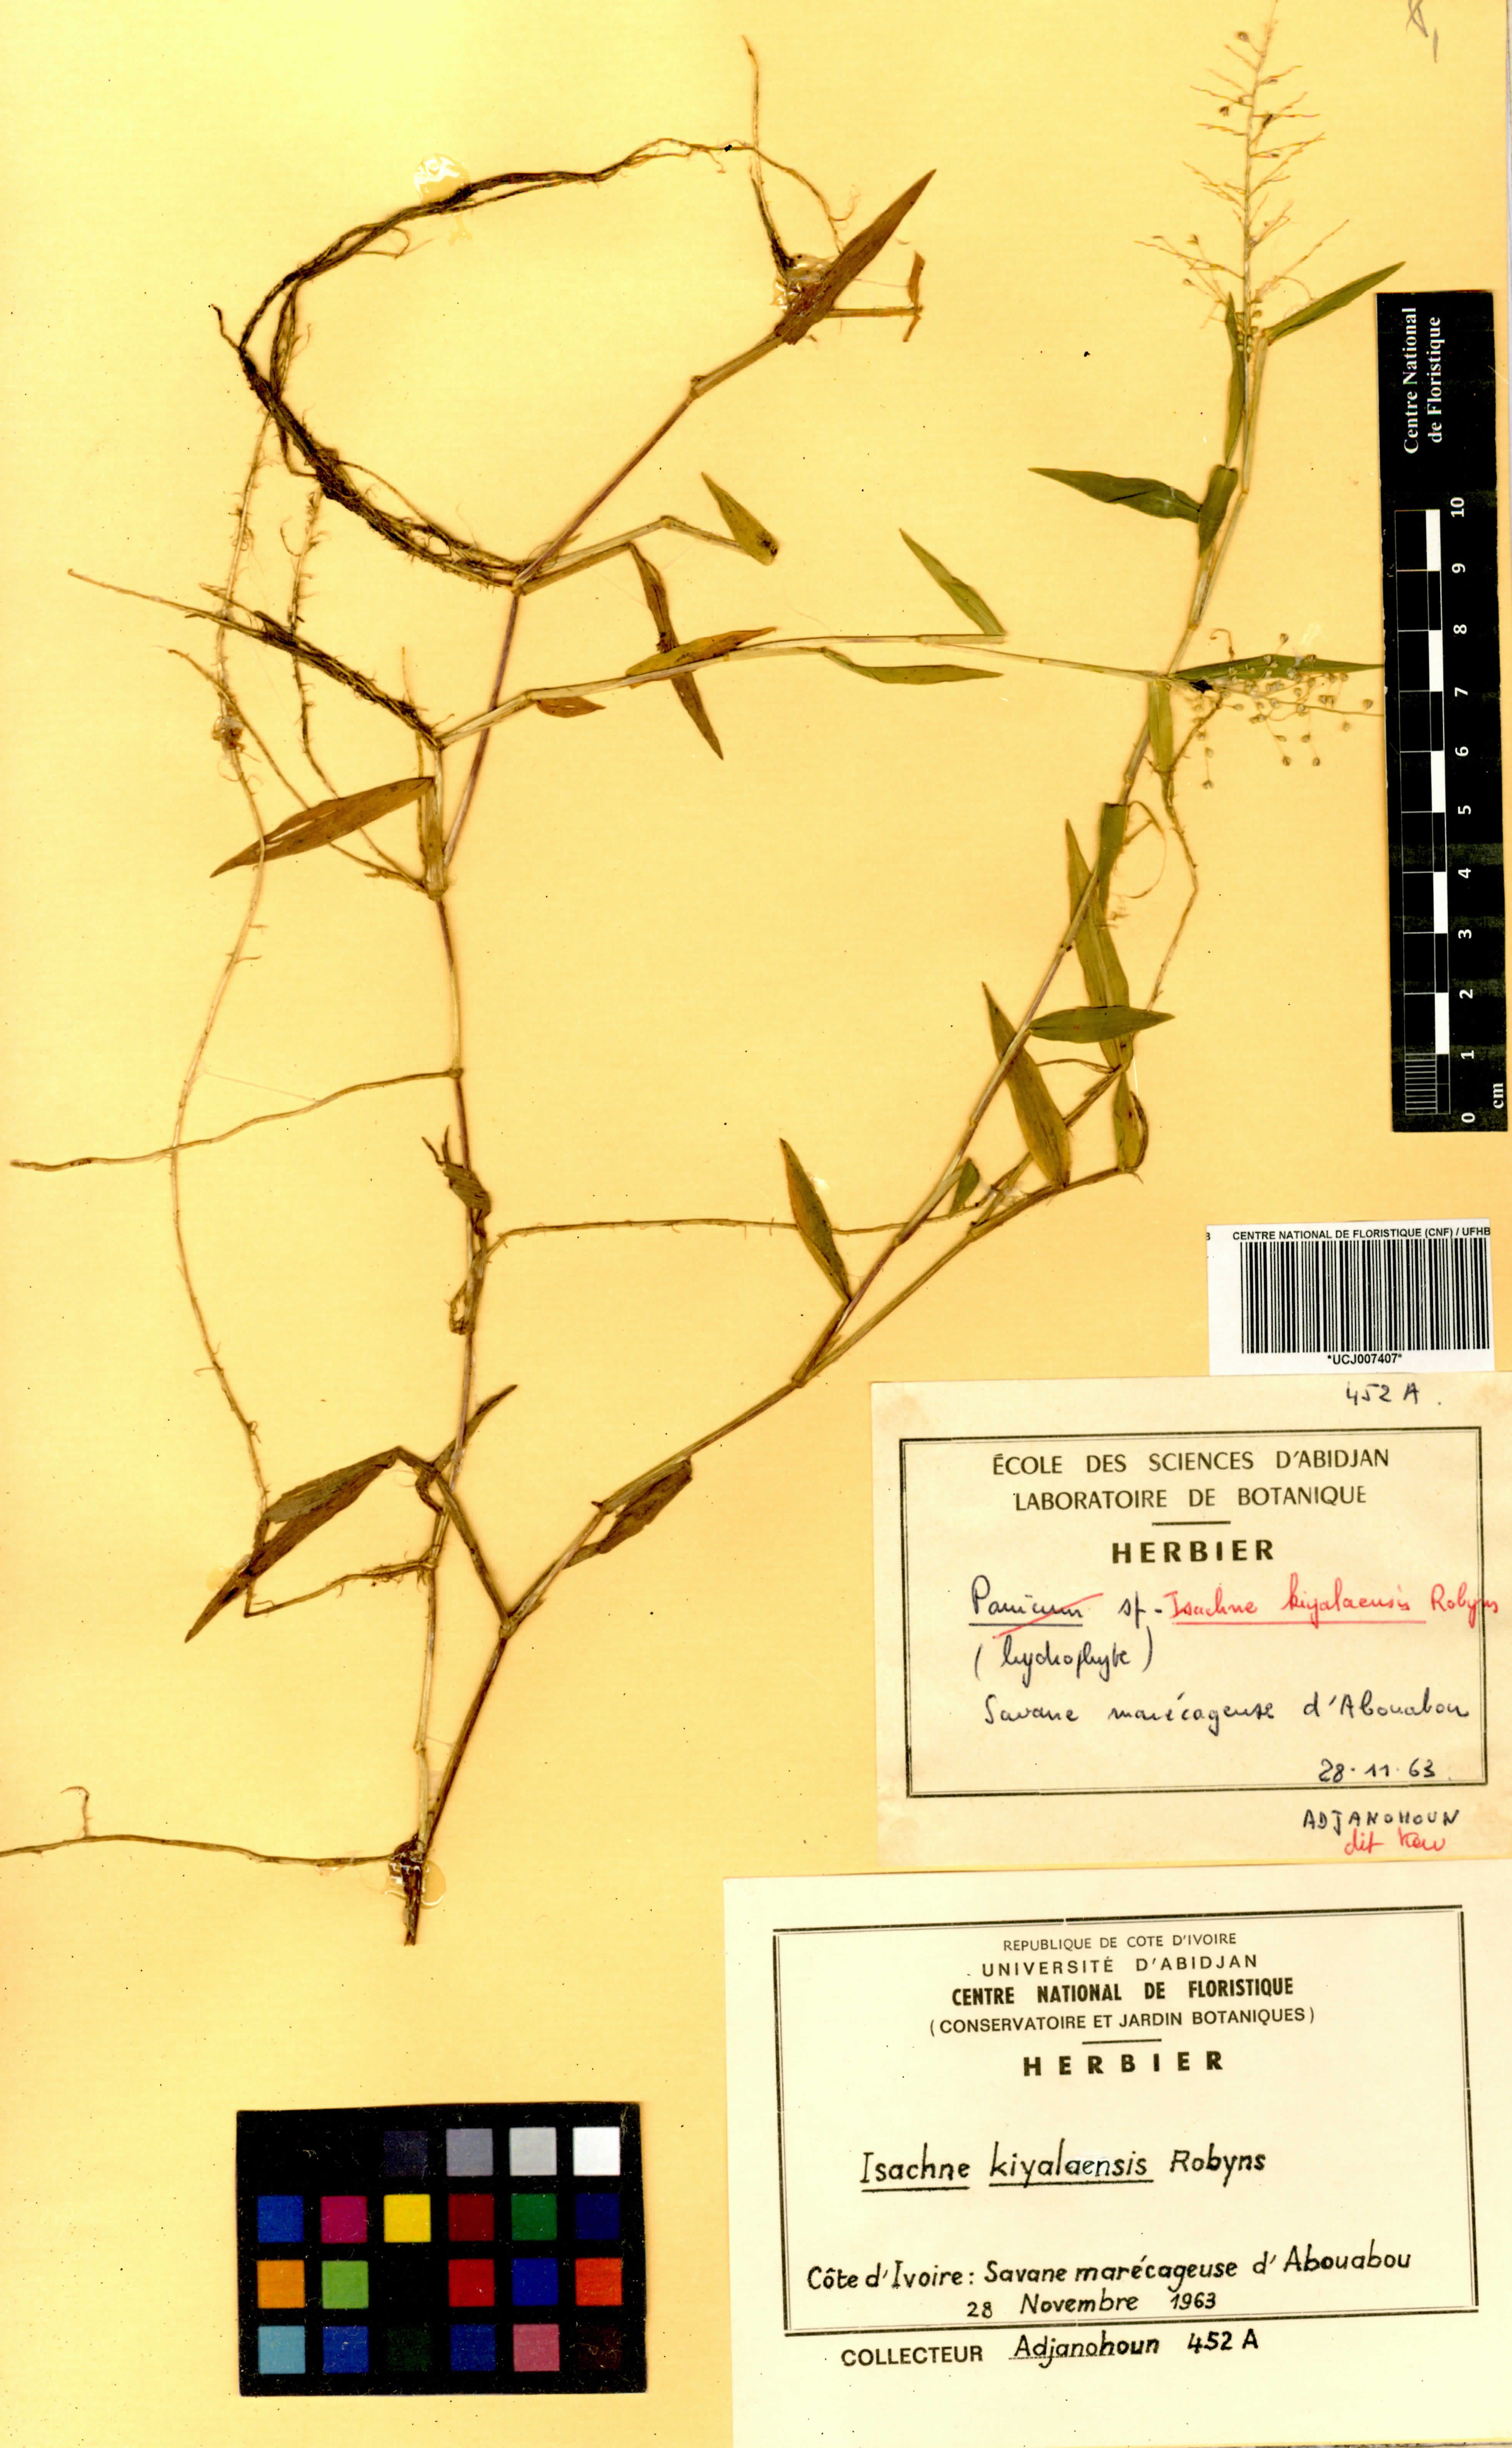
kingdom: Plantae
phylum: Tracheophyta
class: Liliopsida
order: Poales
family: Poaceae
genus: Isachne
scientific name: Isachne kiyalaensis
